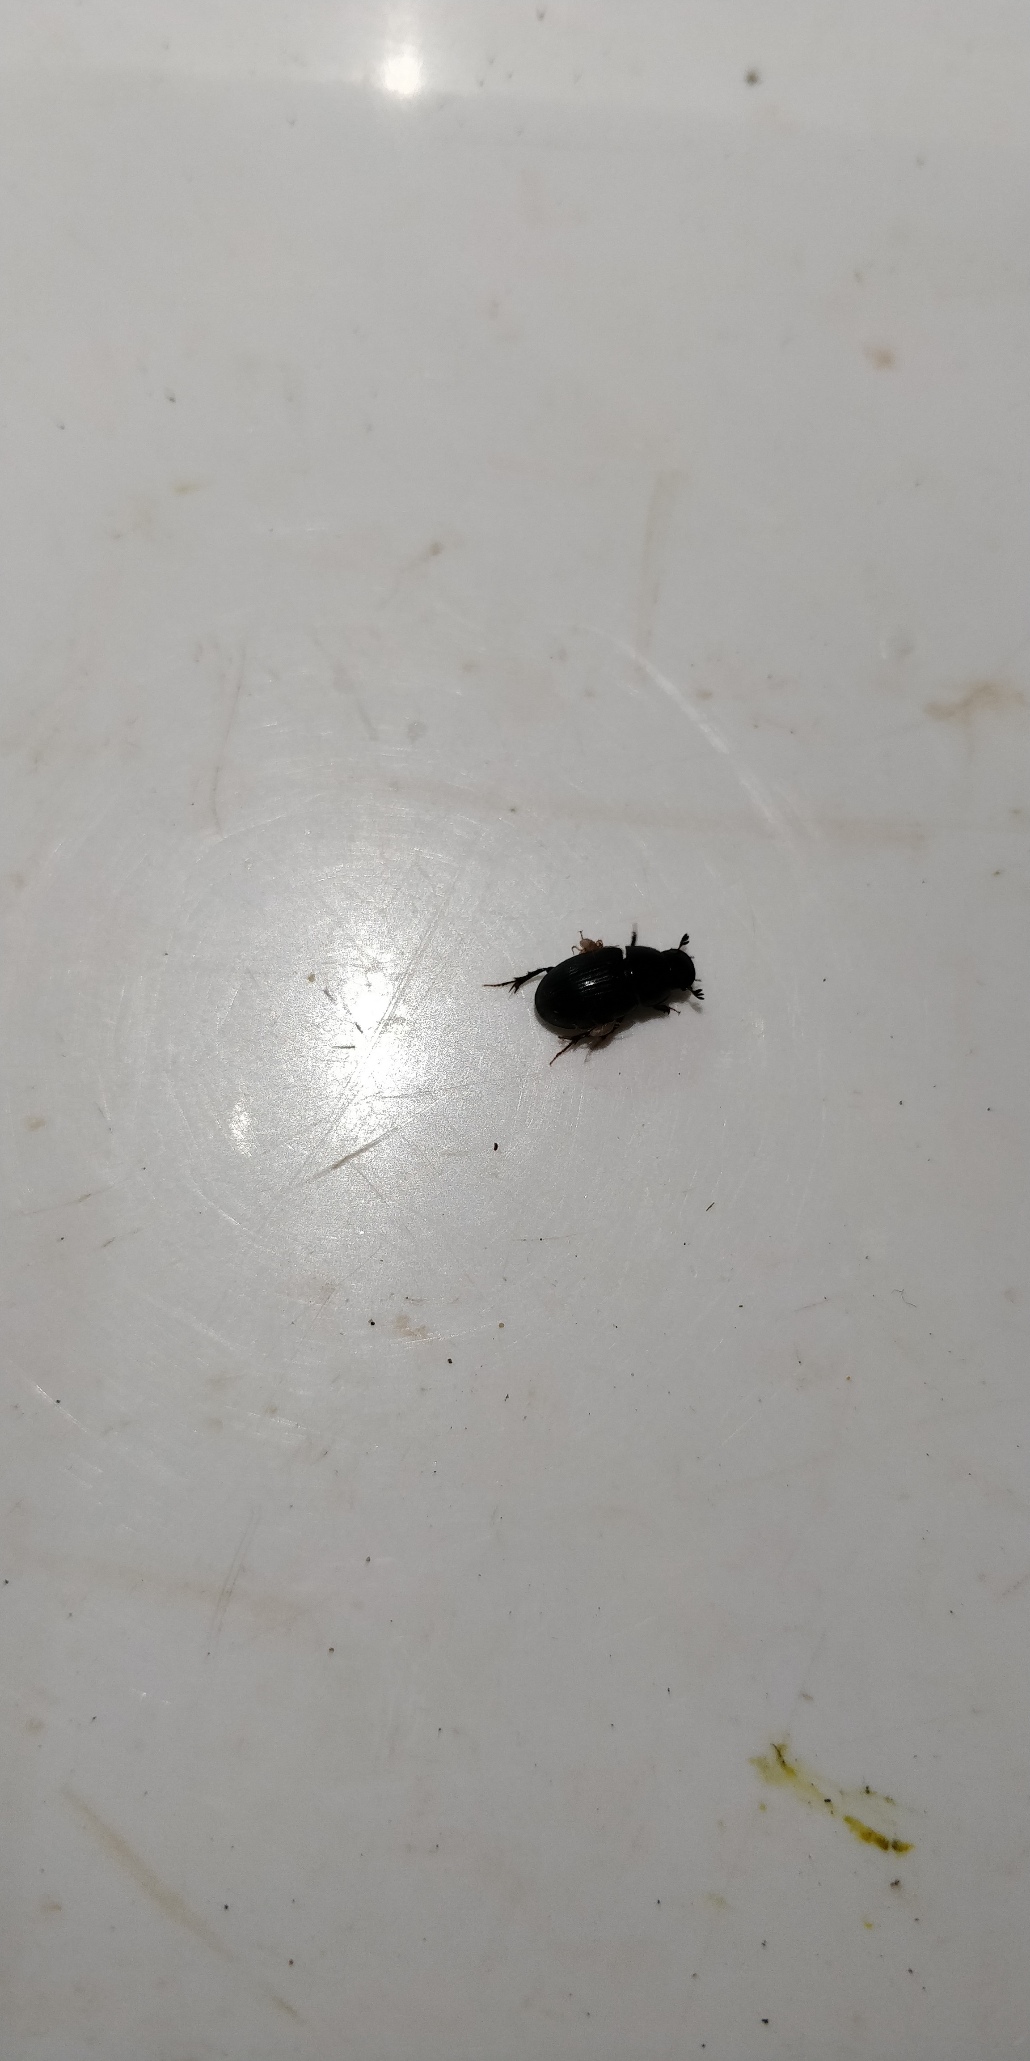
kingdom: Animalia
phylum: Arthropoda
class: Insecta
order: Coleoptera
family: Scarabaeidae
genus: Agrilinus
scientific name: Agrilinus ater
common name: Matsort møgbille
